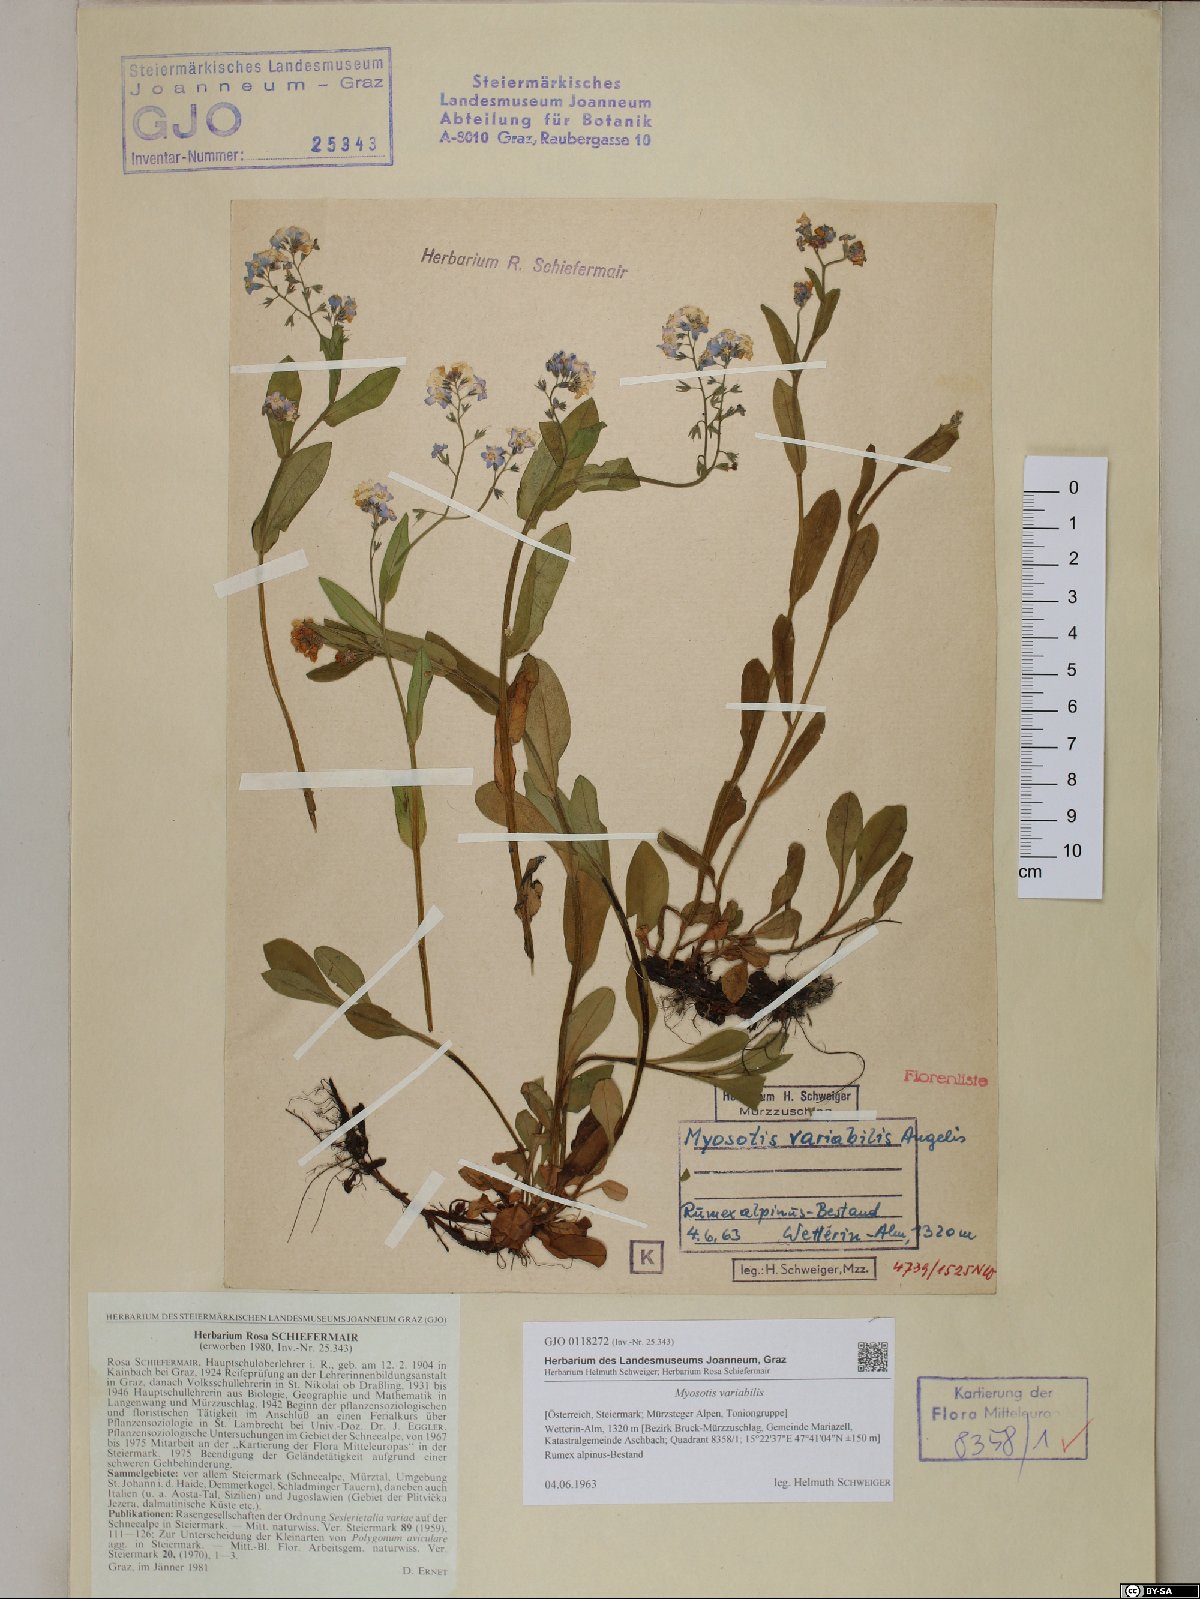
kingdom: Plantae
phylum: Tracheophyta
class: Magnoliopsida
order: Boraginales
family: Boraginaceae
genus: Myosotis
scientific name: Myosotis decumbens
